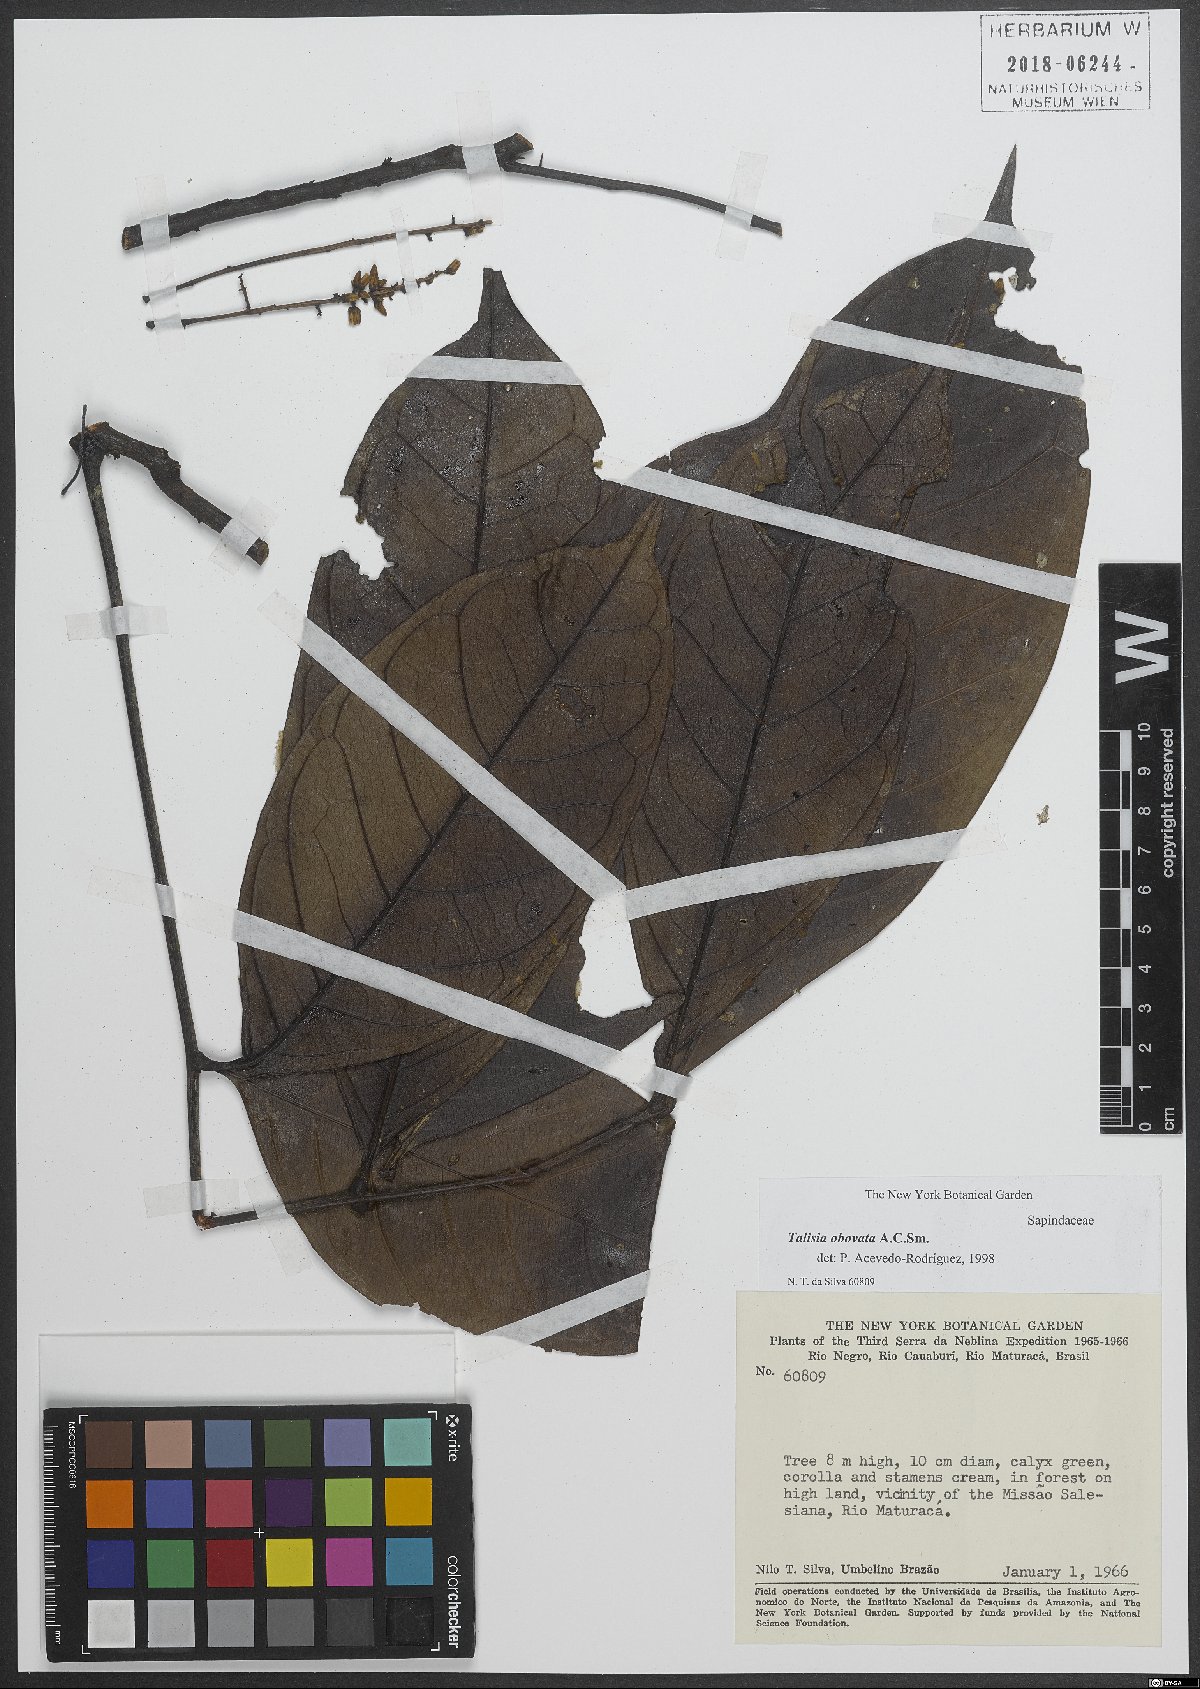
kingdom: Plantae
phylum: Tracheophyta
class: Magnoliopsida
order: Sapindales
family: Sapindaceae
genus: Talisia
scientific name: Talisia obovata
